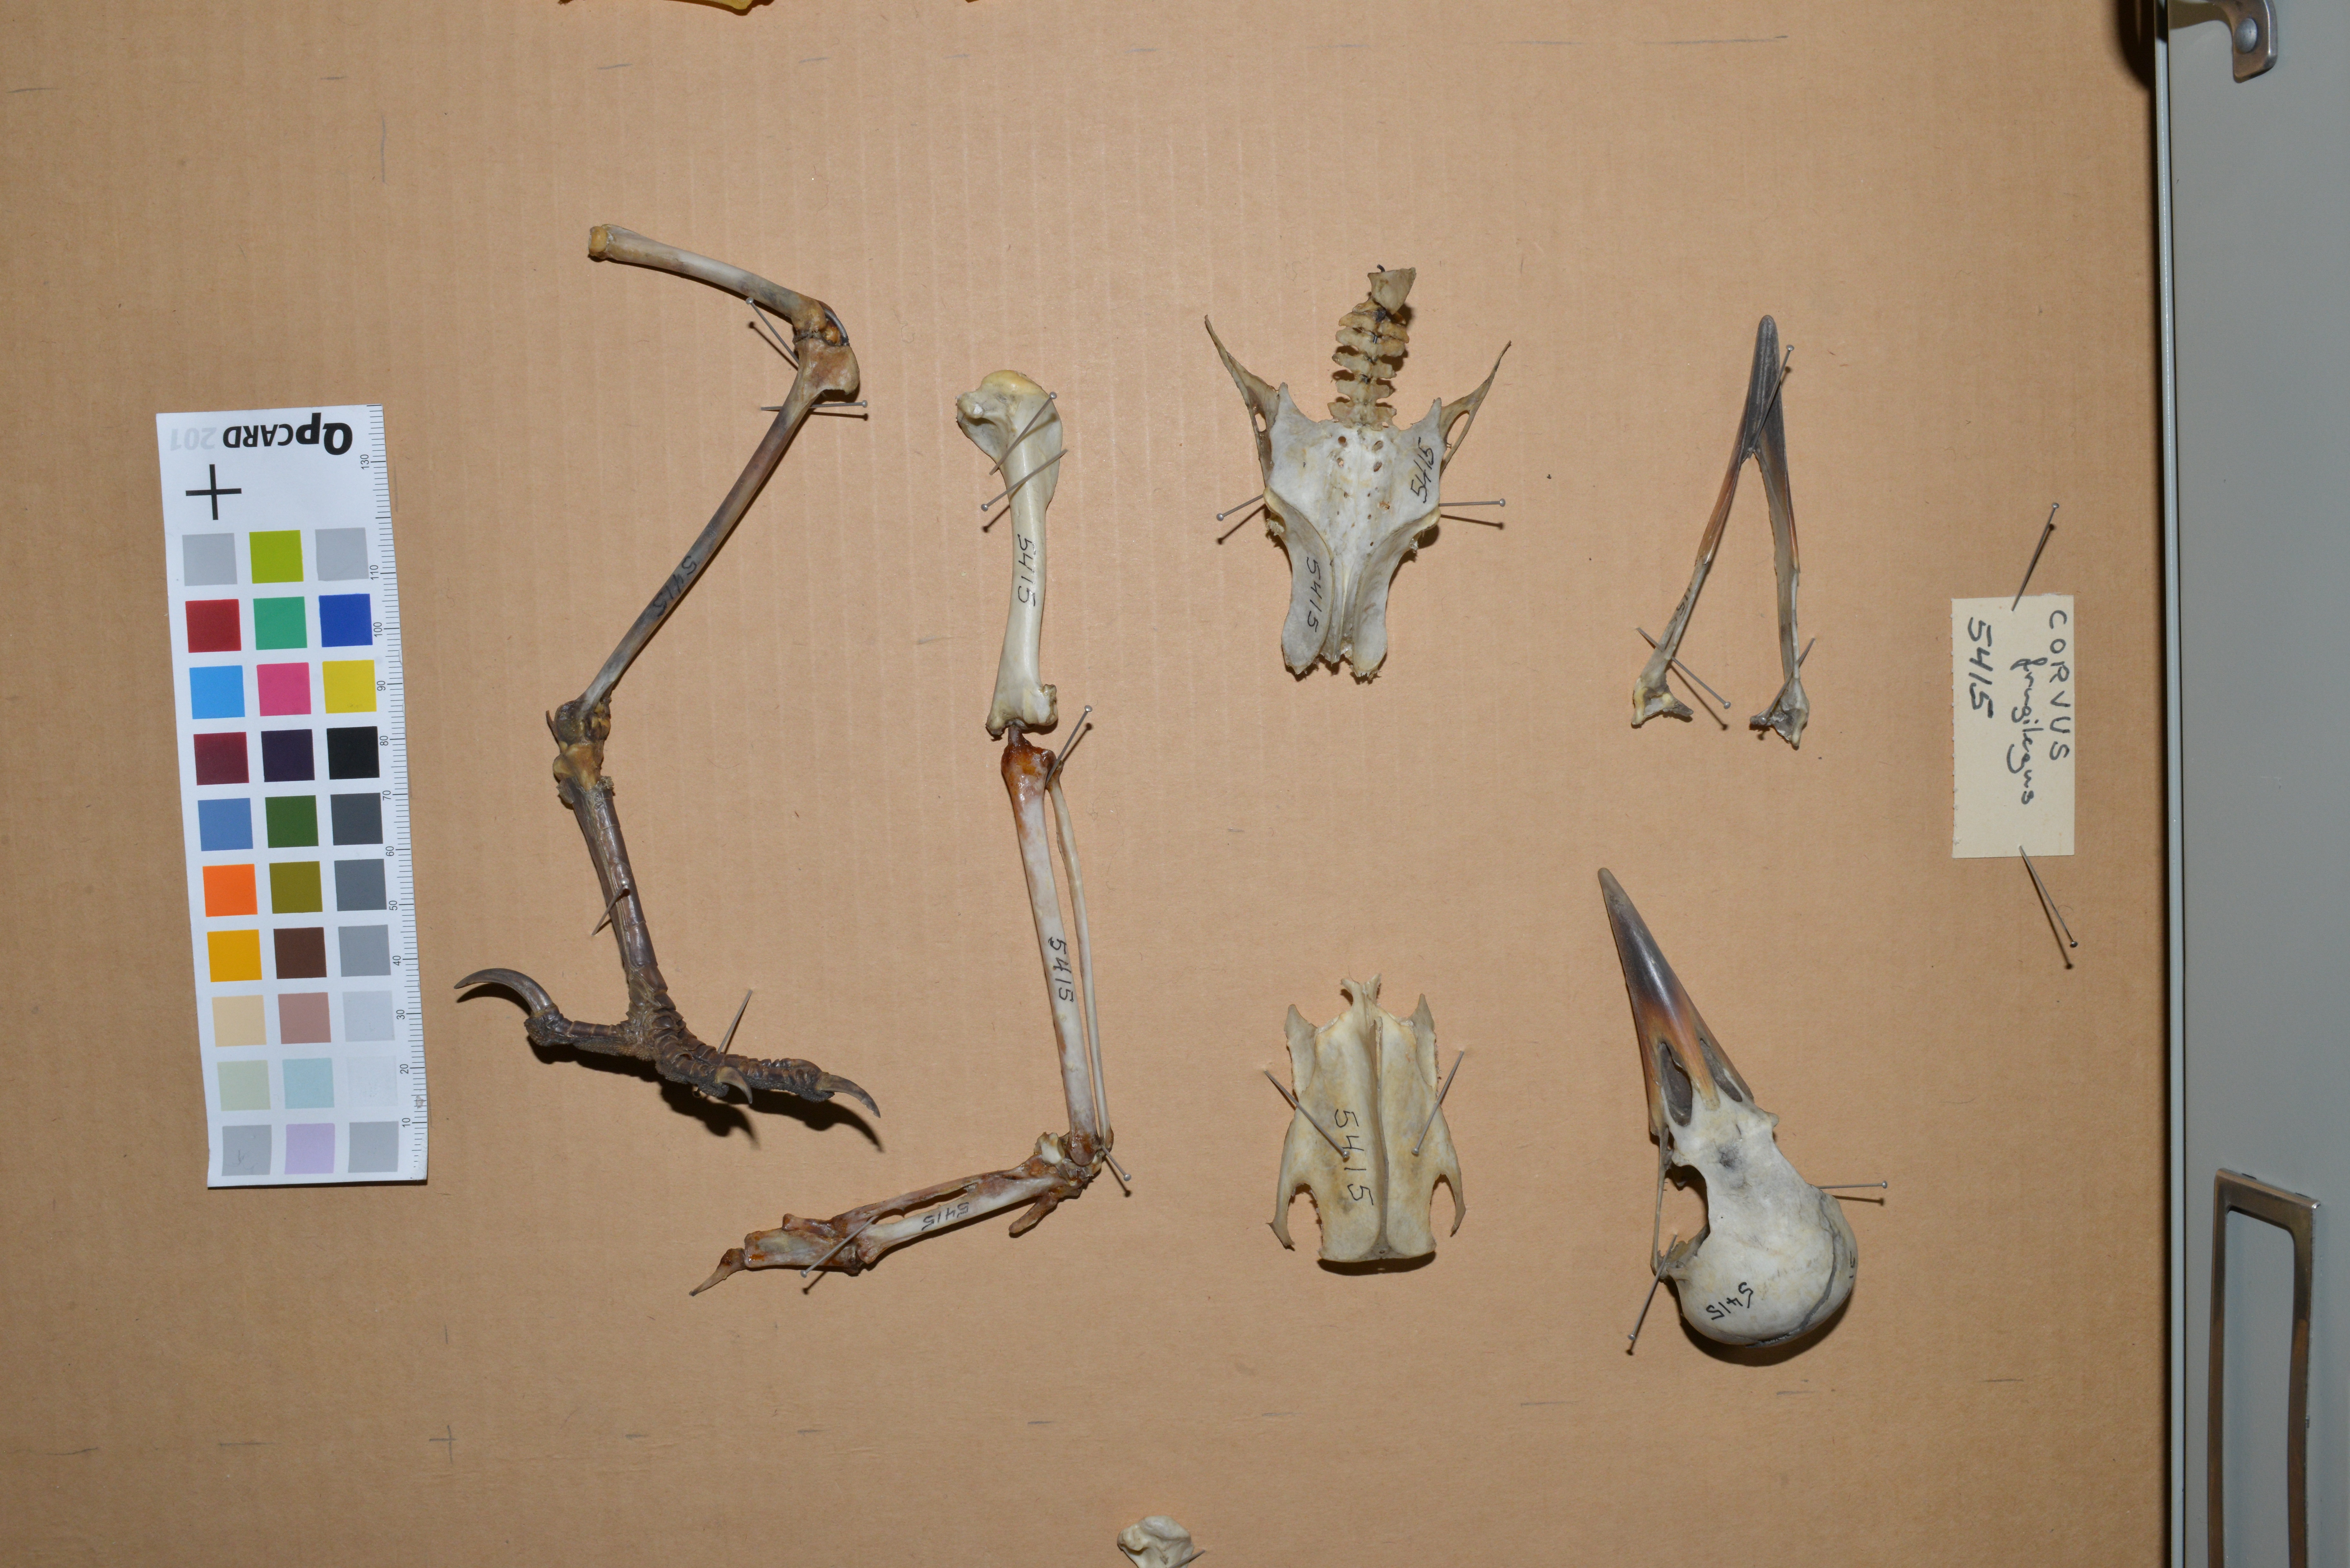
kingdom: Animalia
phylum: Chordata
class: Aves
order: Passeriformes
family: Corvidae
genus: Corvus
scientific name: Corvus frugilegus
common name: Rook
